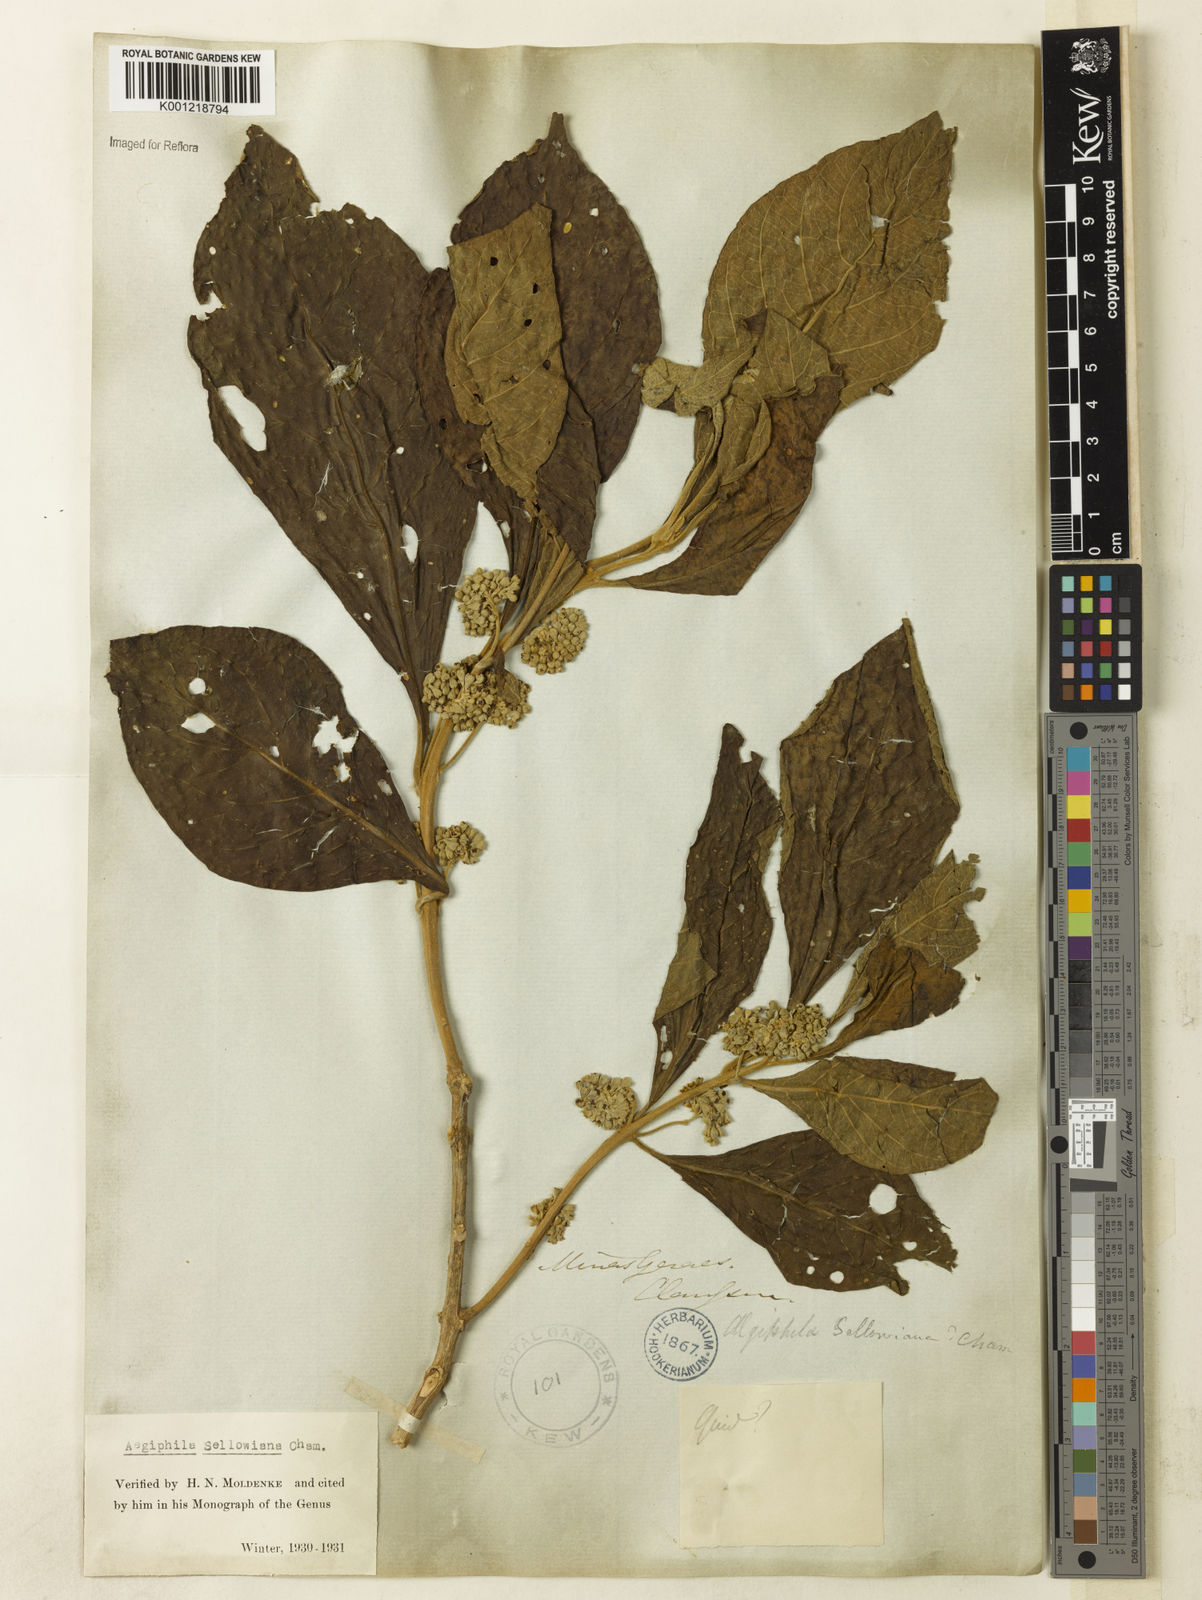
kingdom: Plantae
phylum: Tracheophyta
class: Magnoliopsida
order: Lamiales
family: Lamiaceae
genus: Aegiphila
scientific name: Aegiphila verticillata
